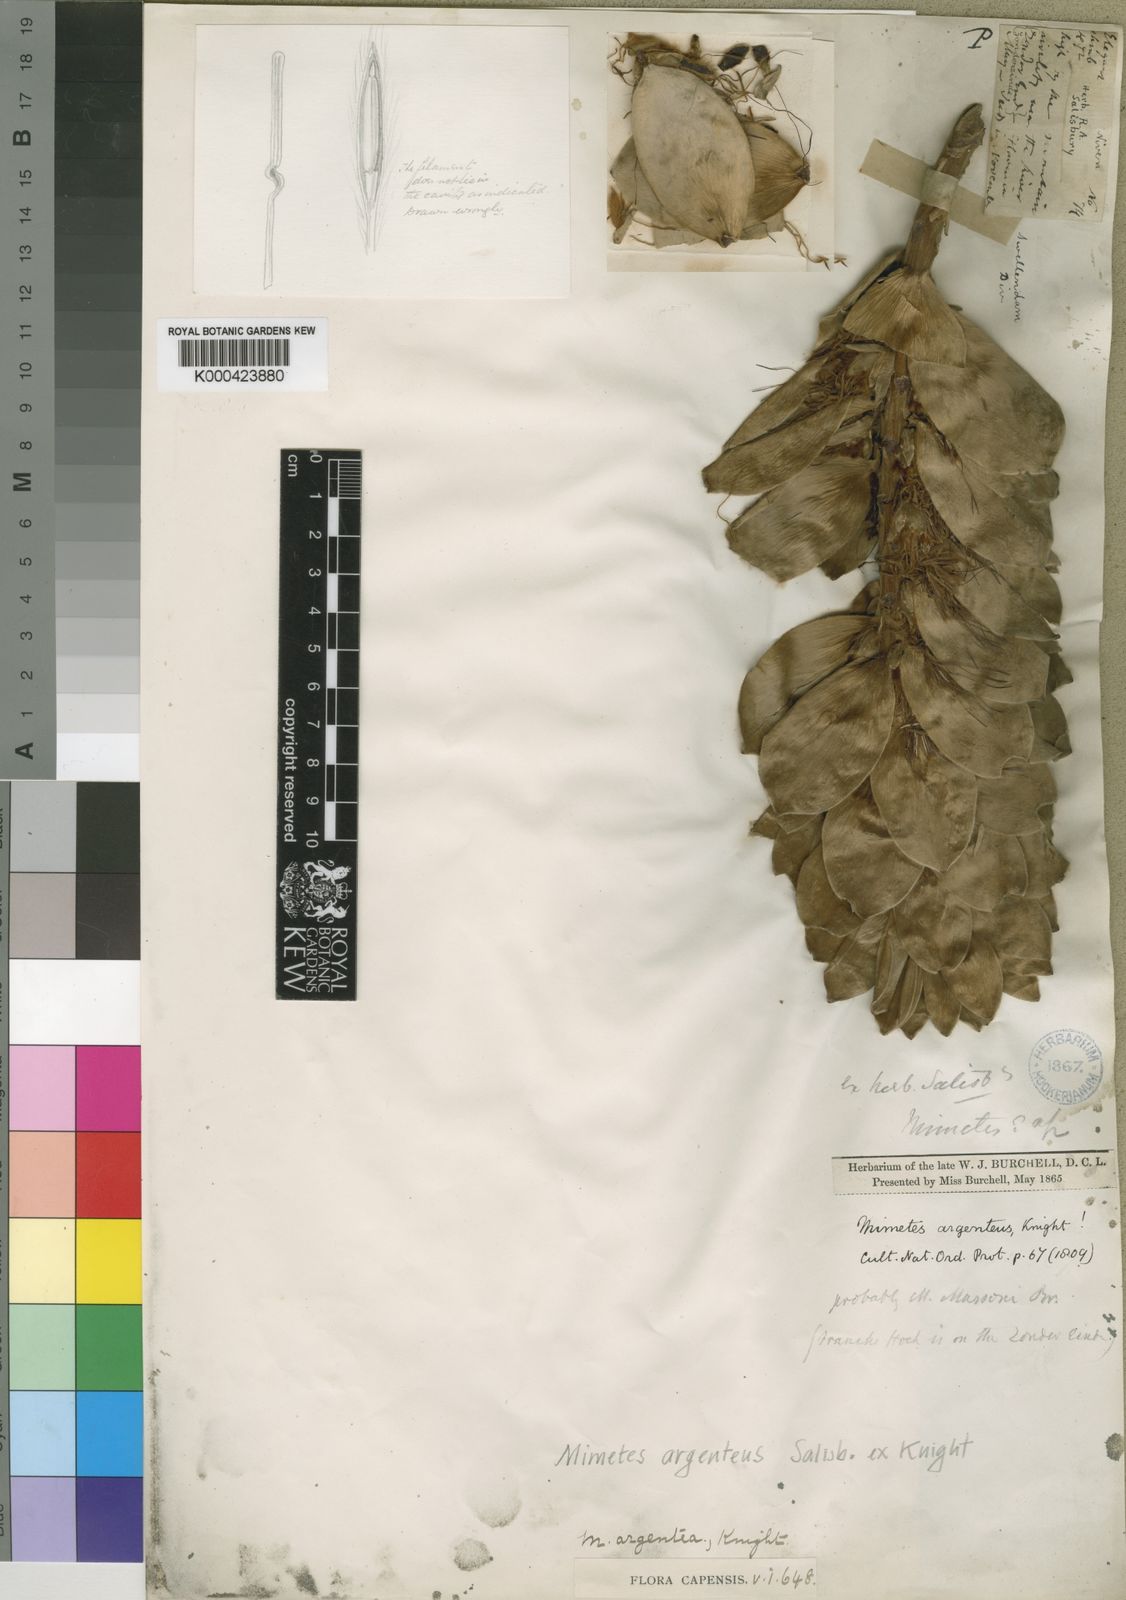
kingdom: Plantae
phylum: Tracheophyta
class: Magnoliopsida
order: Proteales
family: Proteaceae
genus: Mimetes
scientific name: Mimetes argenteus
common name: Silver pagoda
